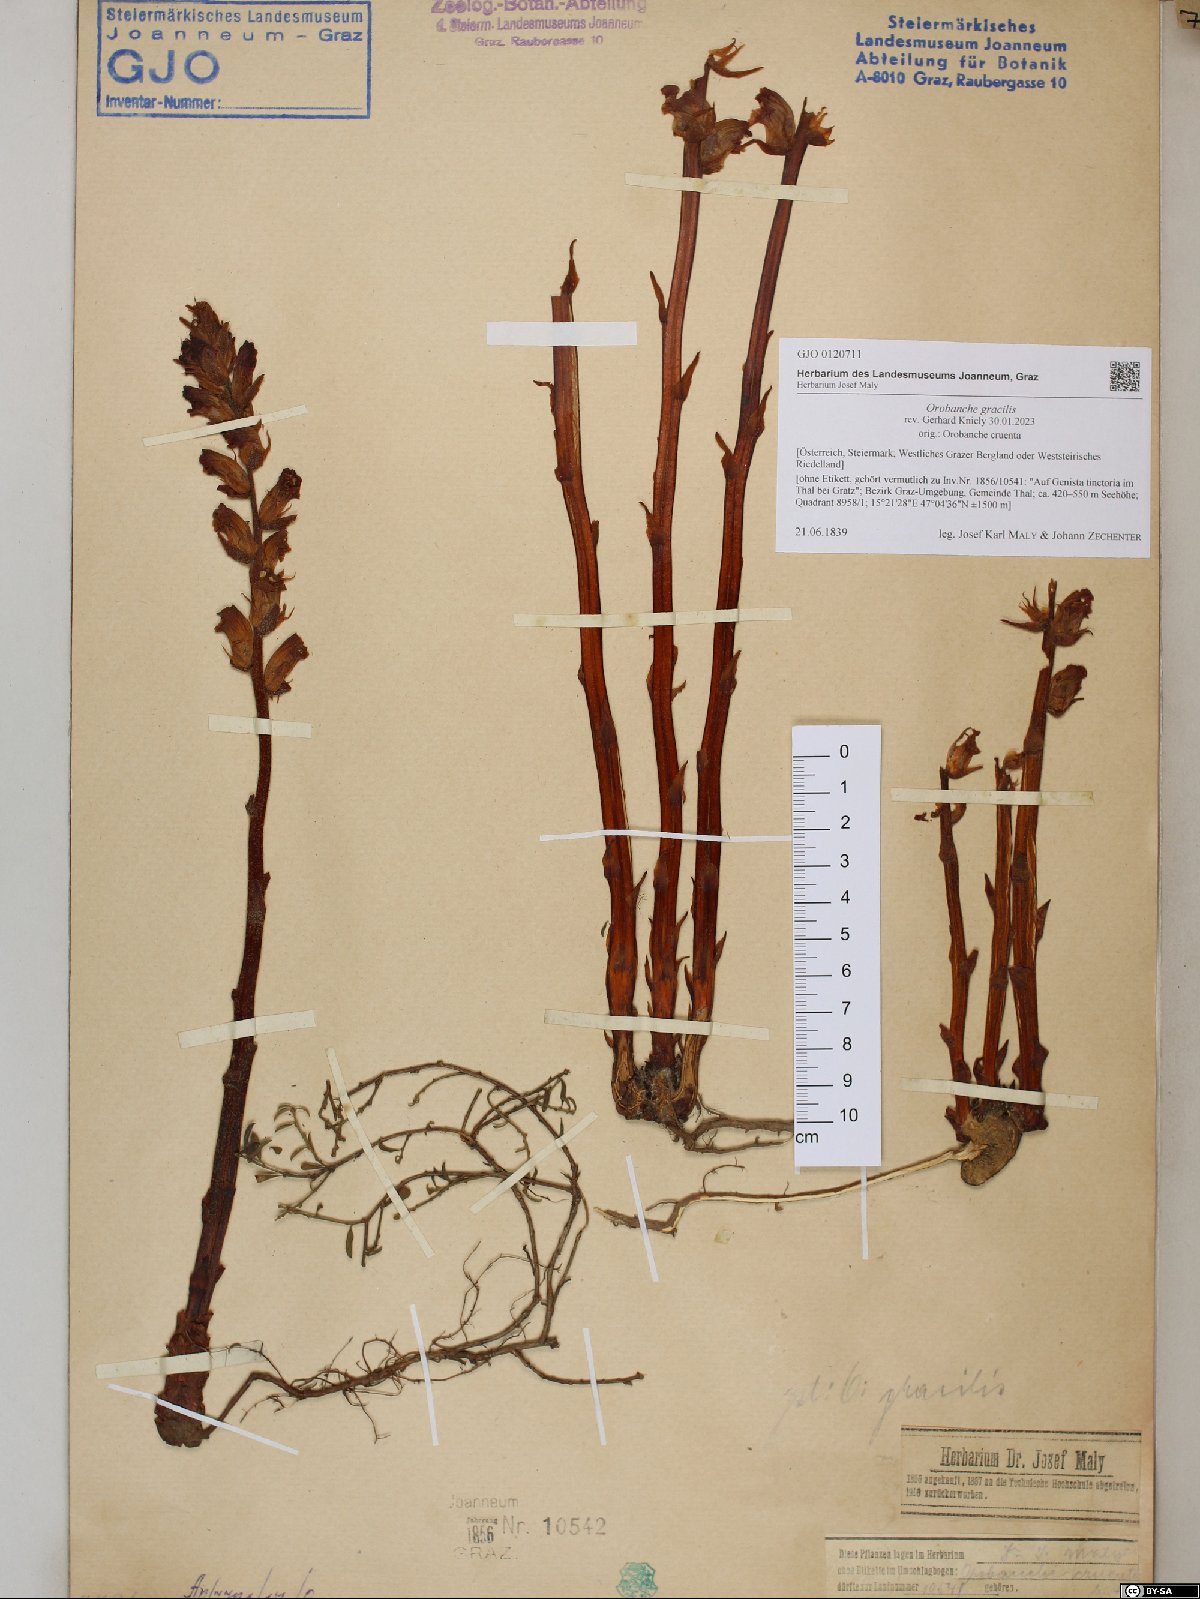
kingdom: Plantae
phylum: Tracheophyta
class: Magnoliopsida
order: Lamiales
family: Orobanchaceae
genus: Orobanche
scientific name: Orobanche gracilis
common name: Slender broomrape
